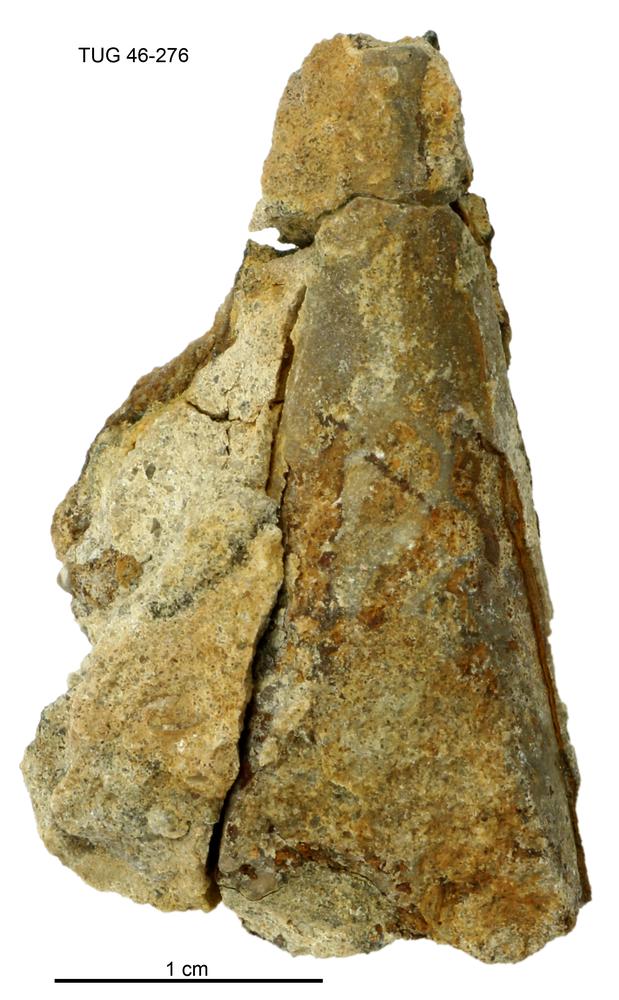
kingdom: Animalia
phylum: Annelida
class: Polychaeta
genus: Hyolithes
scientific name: Hyolithes
